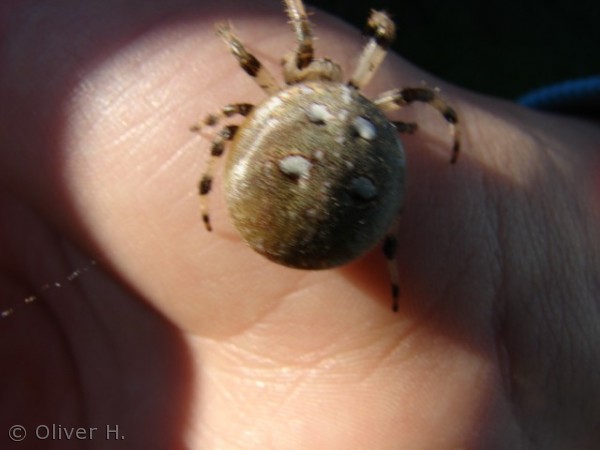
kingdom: Animalia
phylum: Arthropoda
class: Arachnida
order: Araneae
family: Araneidae
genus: Araneus
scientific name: Araneus quadratus
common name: Kvadratedderkop
